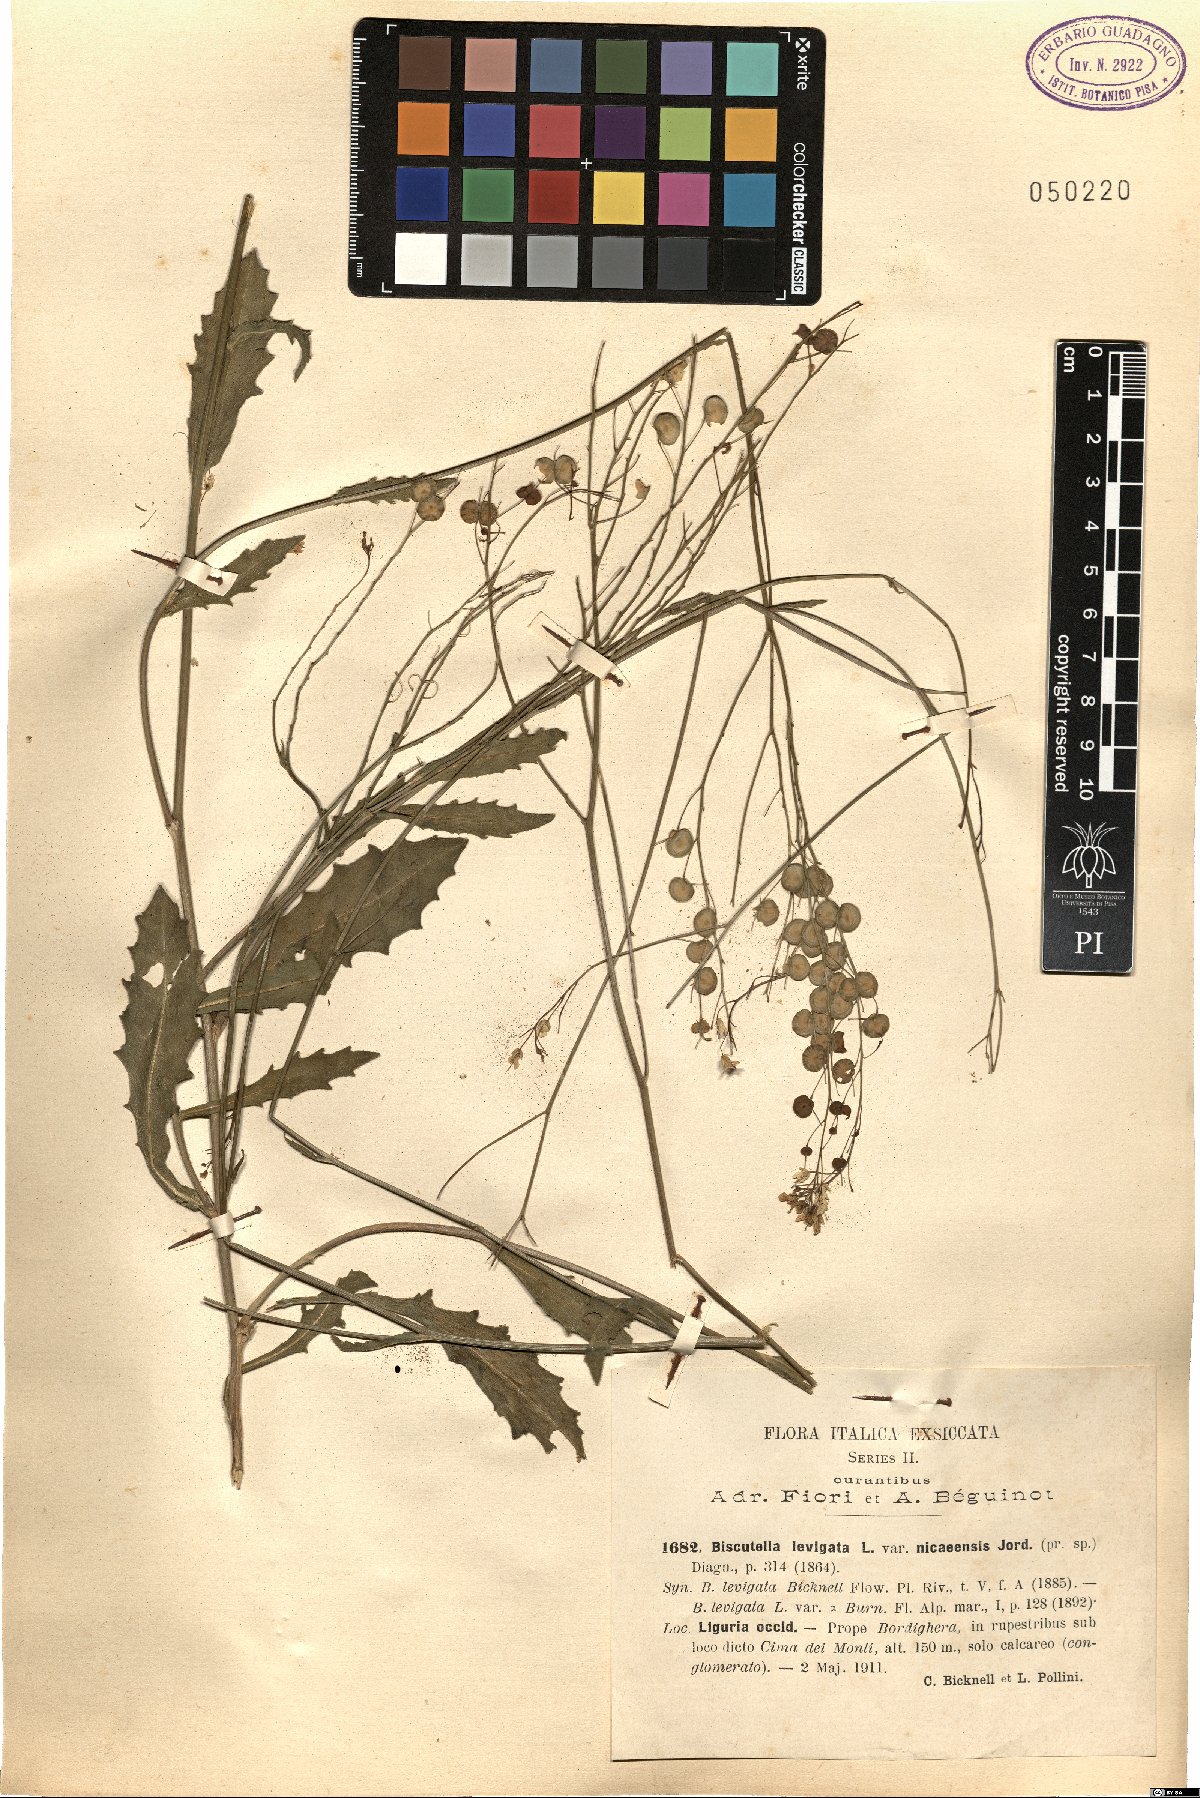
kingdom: Plantae
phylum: Tracheophyta
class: Magnoliopsida
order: Brassicales
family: Brassicaceae
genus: Biscutella
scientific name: Biscutella ambigua
